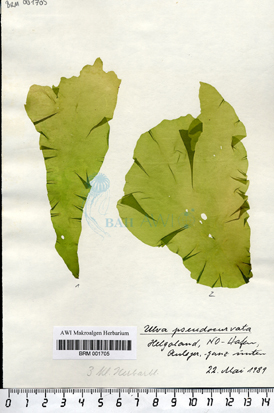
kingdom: Plantae
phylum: Chlorophyta
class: Ulvophyceae
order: Ulvales
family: Ulvaceae
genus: Ulva
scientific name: Ulva pseudocurvata
